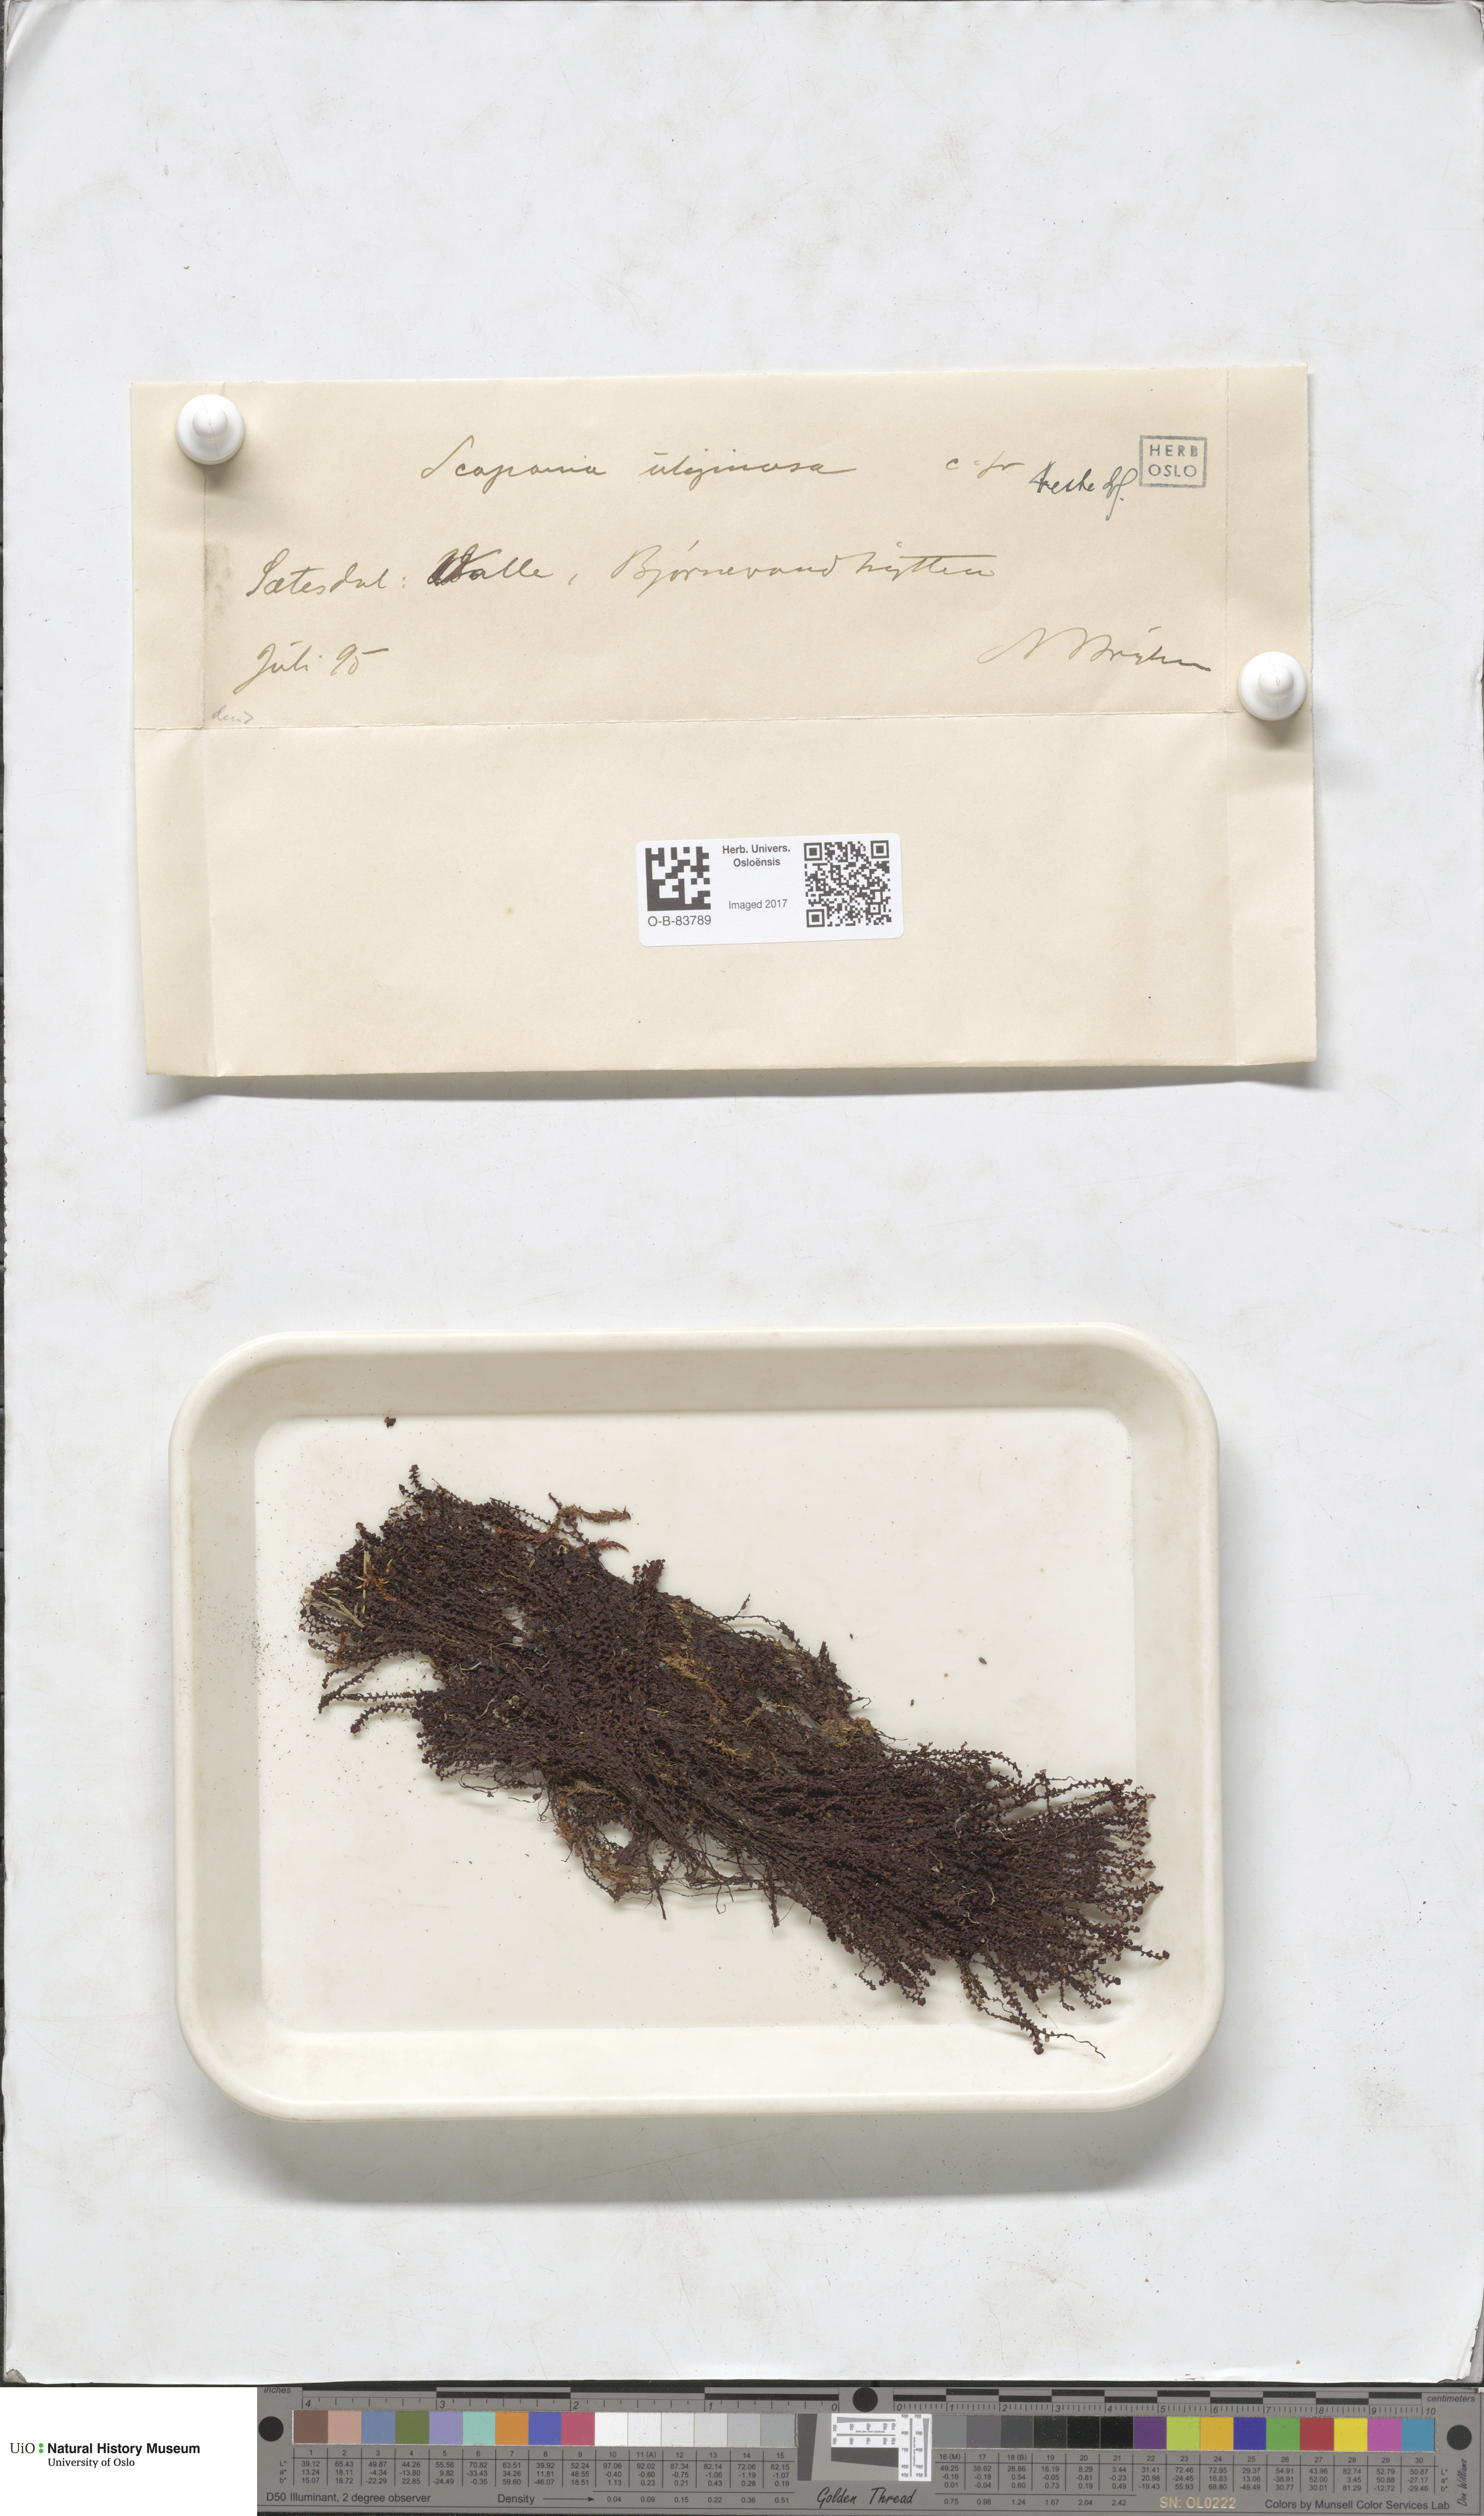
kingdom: Plantae
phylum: Marchantiophyta
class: Jungermanniopsida
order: Jungermanniales
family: Scapaniaceae
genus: Scapania
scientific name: Scapania uliginosa
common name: Marsh earwort
